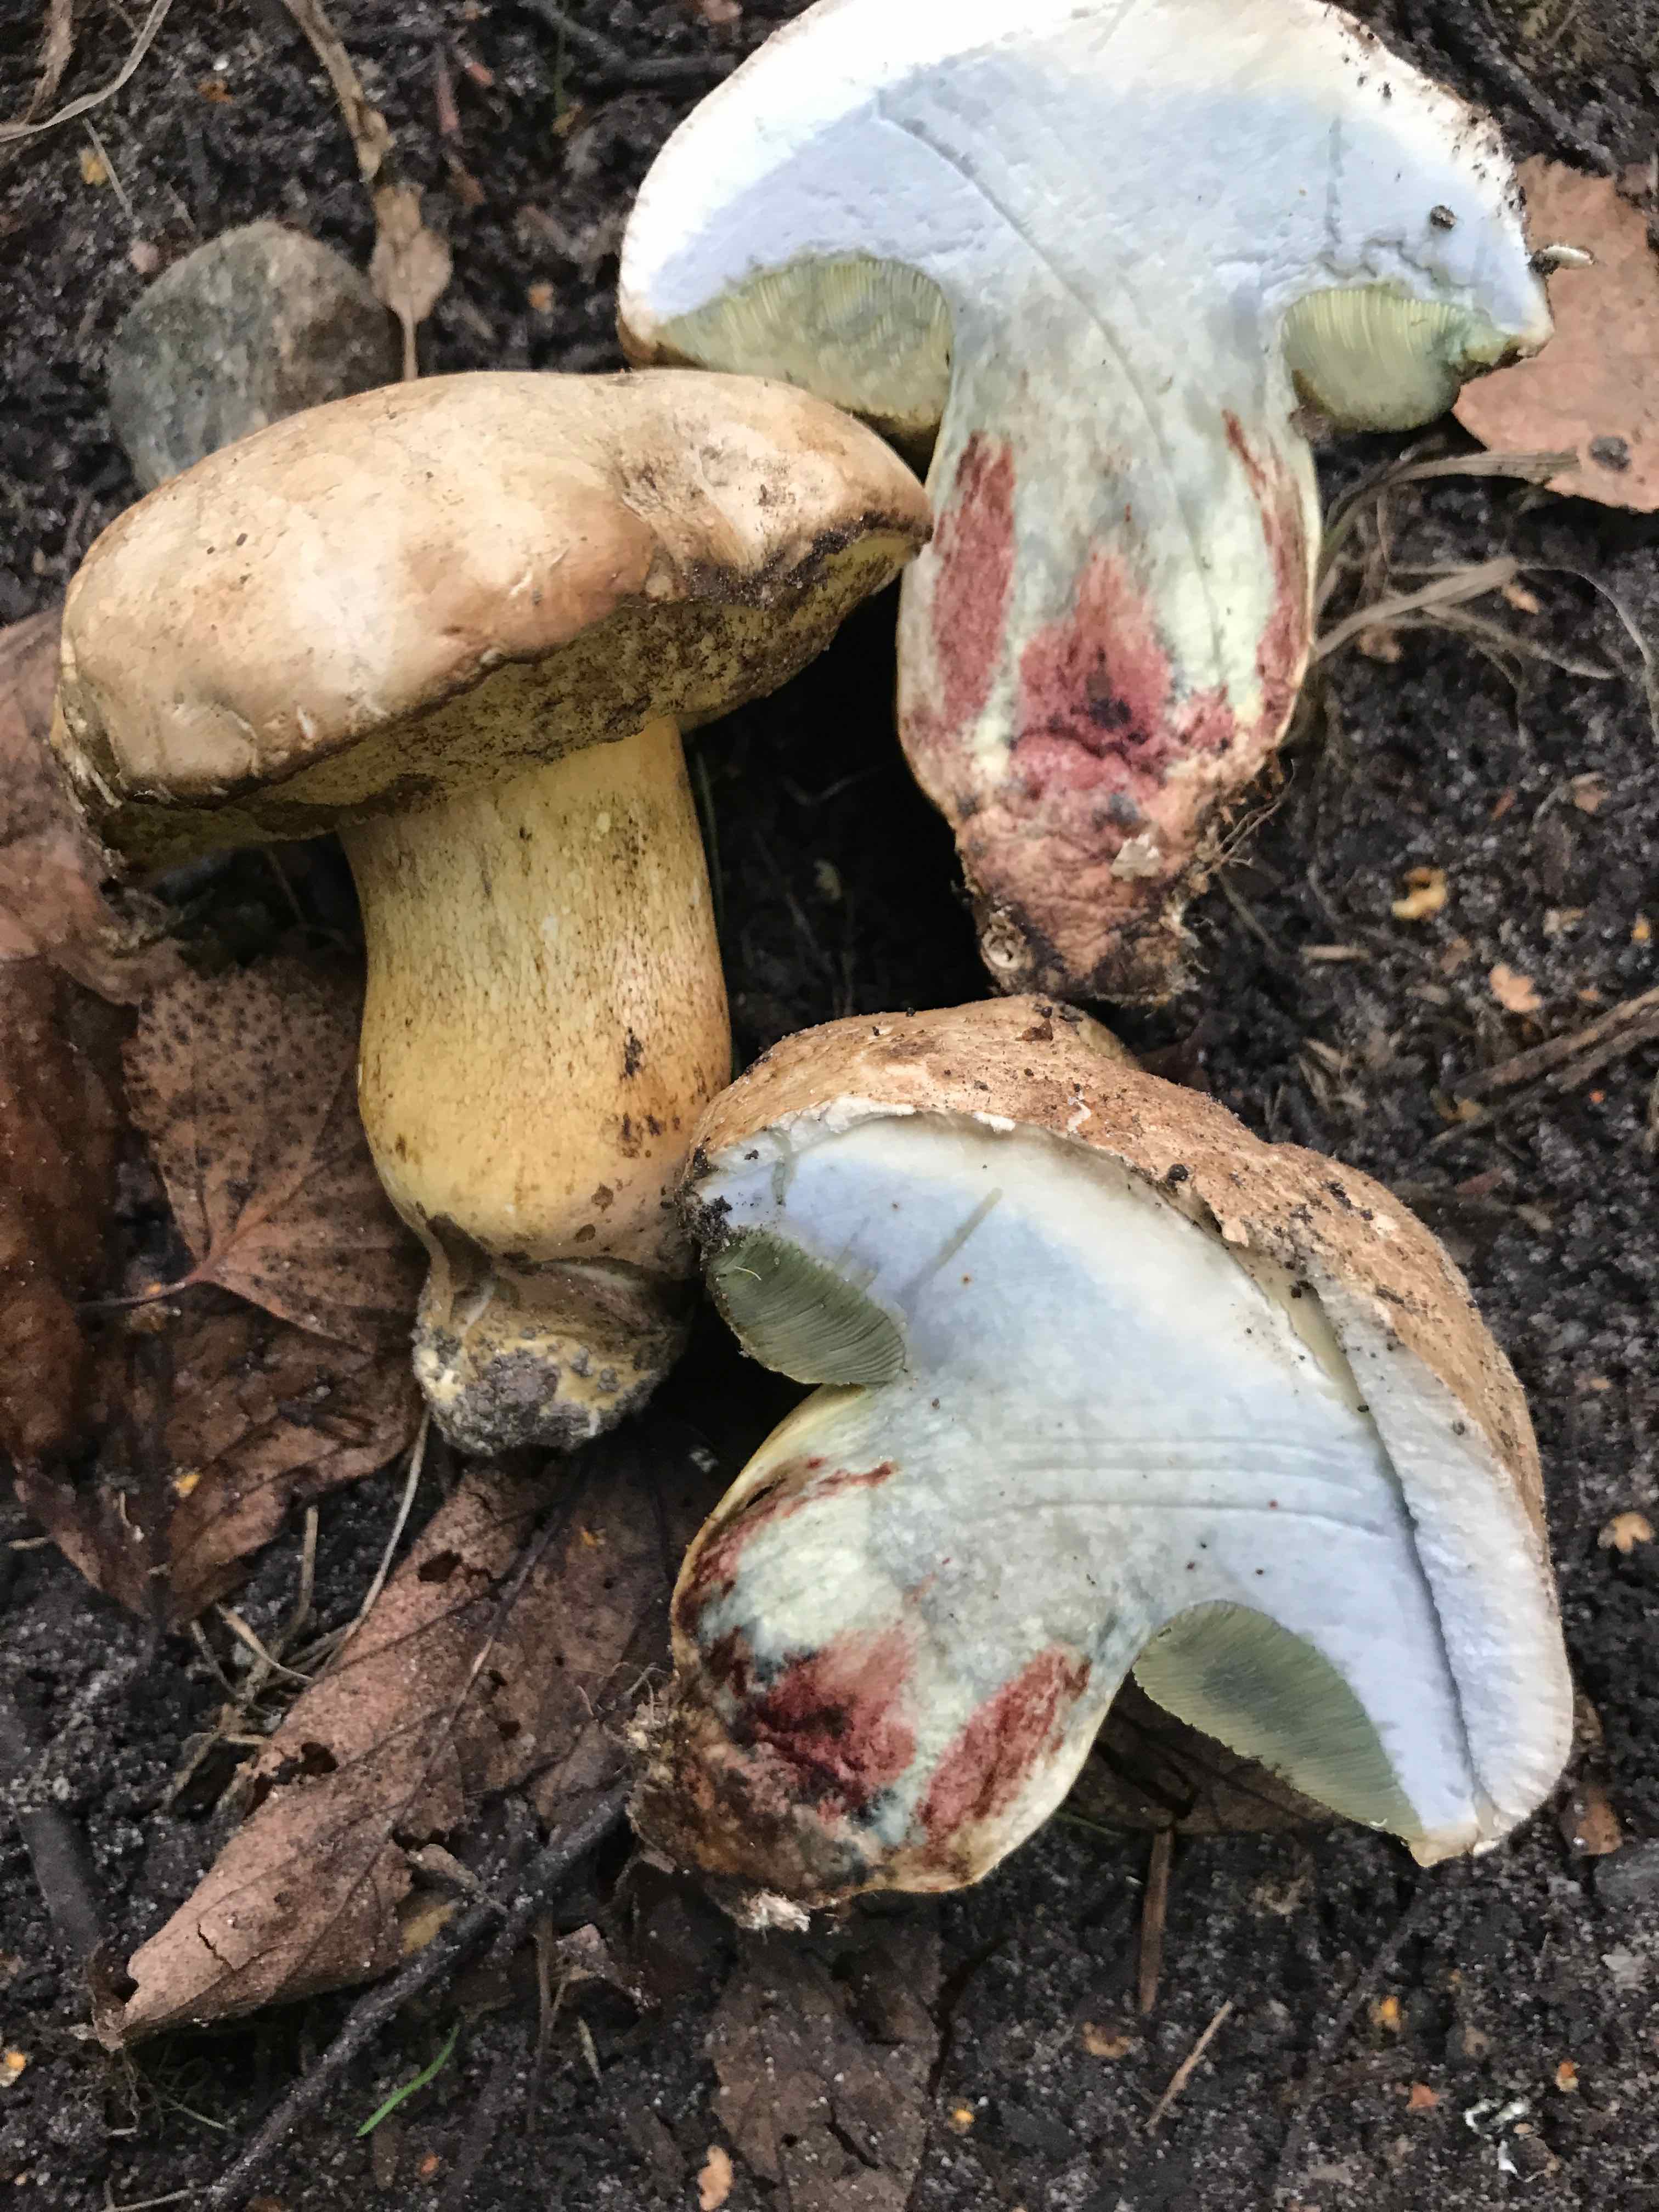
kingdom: Fungi
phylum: Basidiomycota
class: Agaricomycetes
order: Boletales
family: Boletaceae
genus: Caloboletus
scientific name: Caloboletus radicans
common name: rod-rørhat
